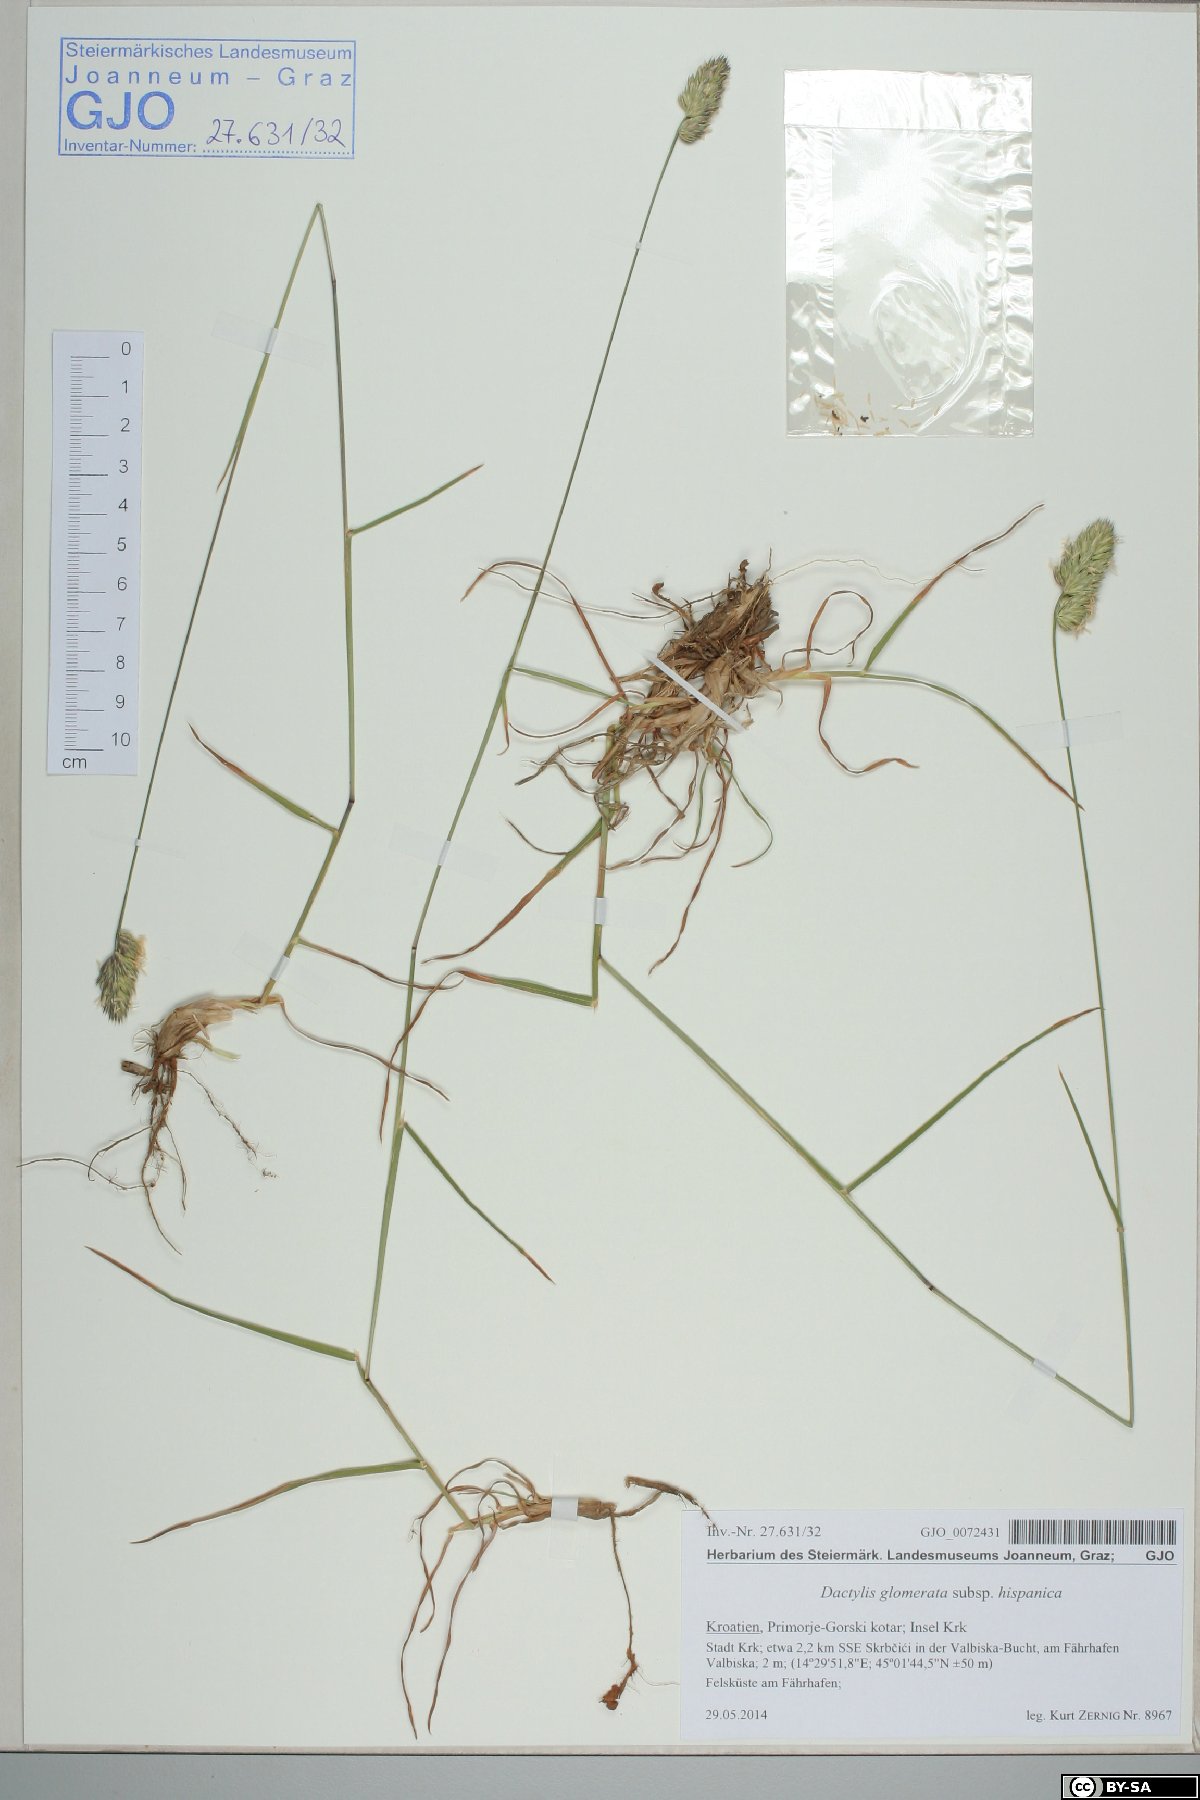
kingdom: Plantae
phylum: Tracheophyta
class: Liliopsida
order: Poales
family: Poaceae
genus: Dactylis
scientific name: Dactylis glomerata
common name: Orchardgrass
